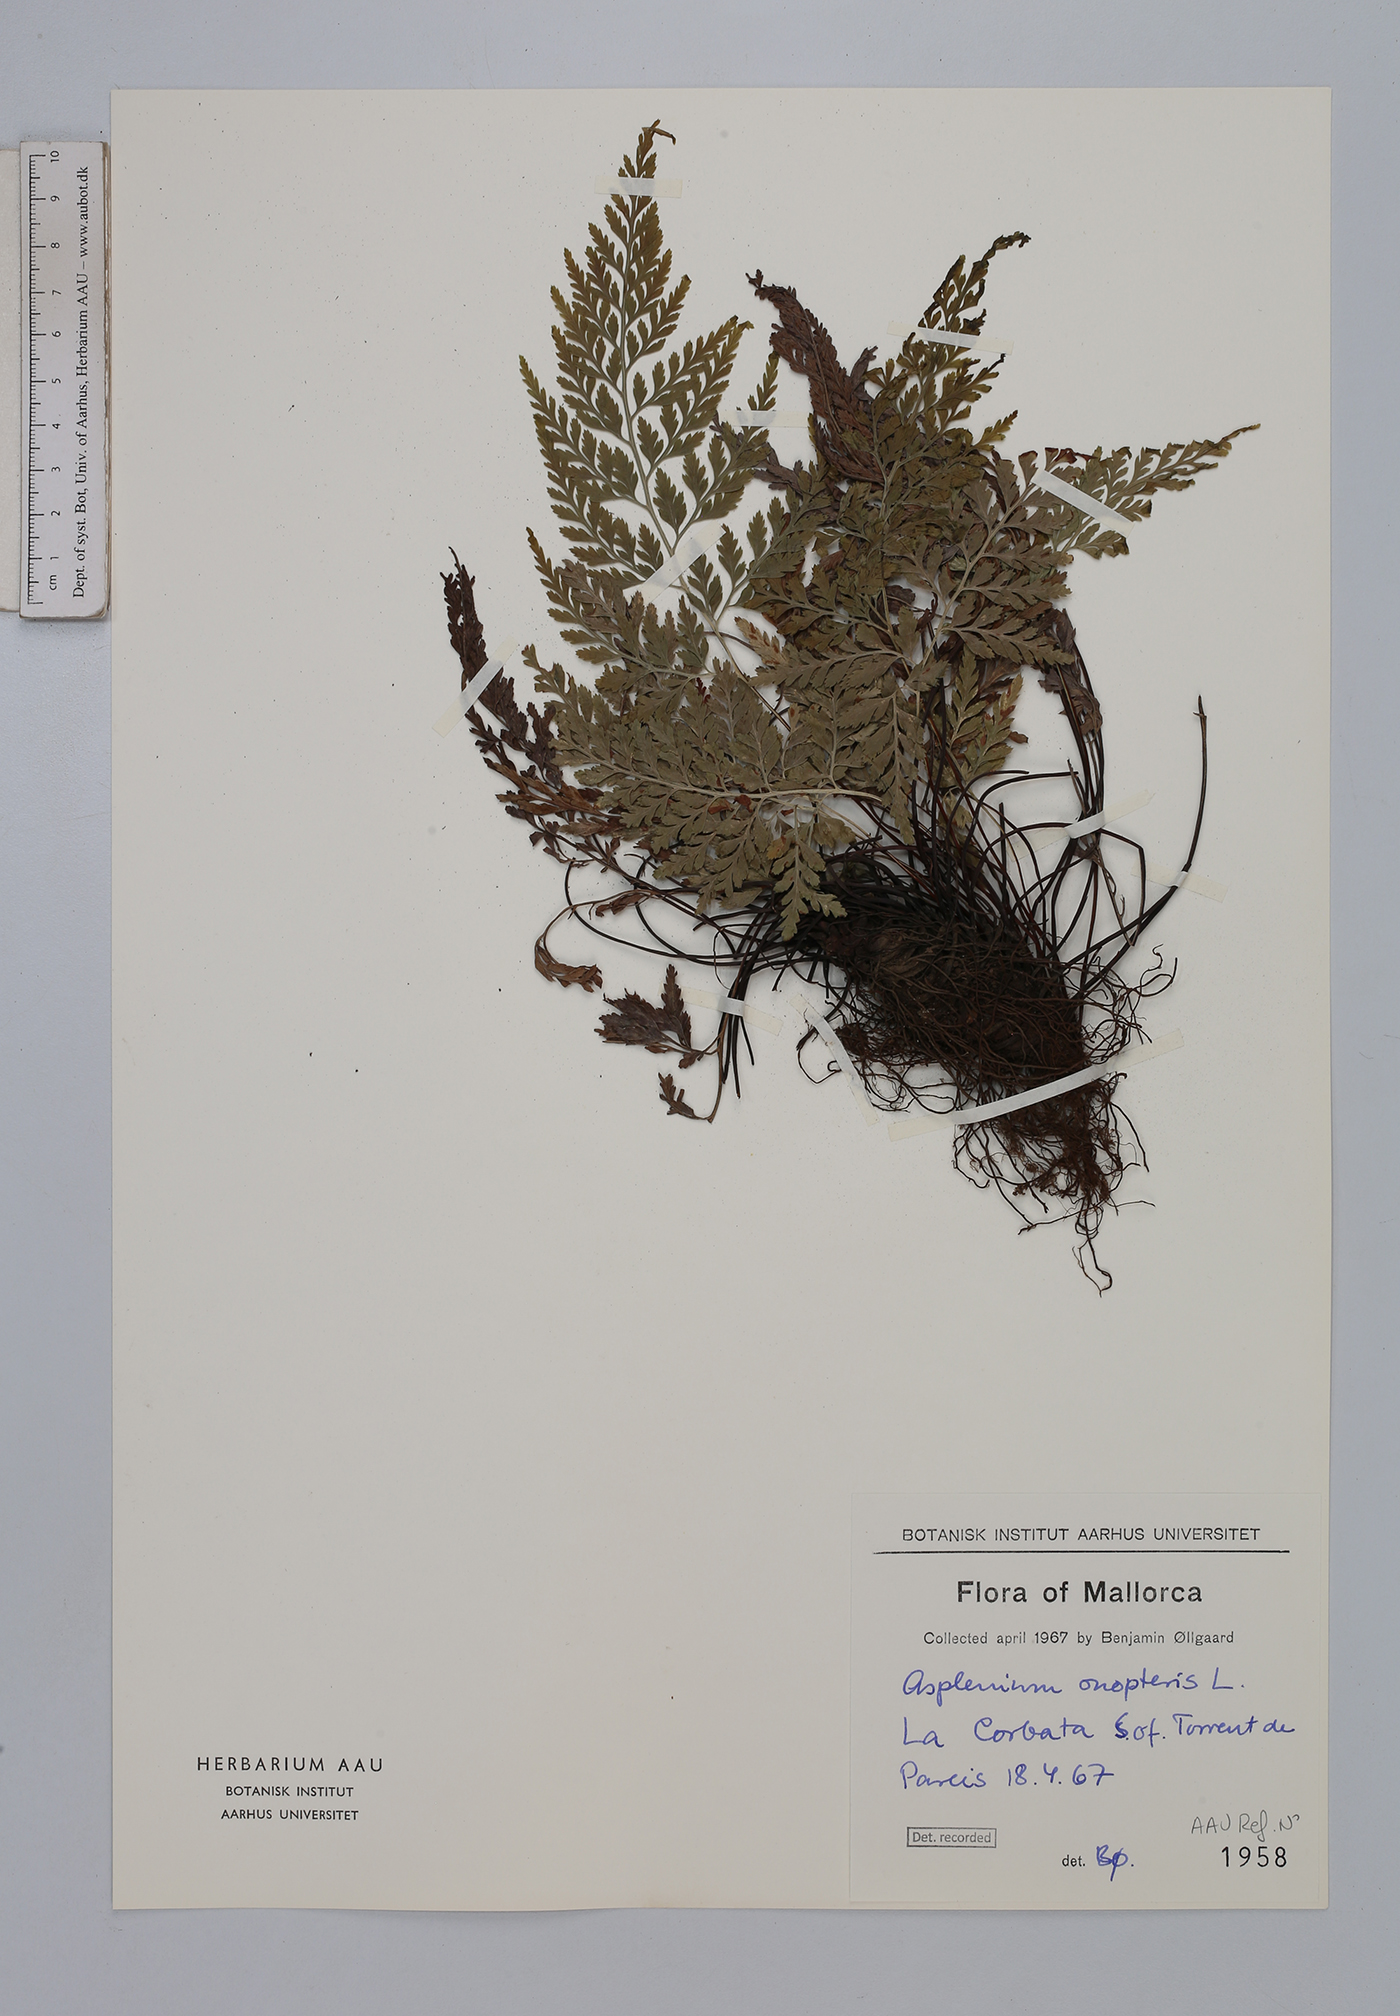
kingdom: Plantae
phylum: Tracheophyta
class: Polypodiopsida
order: Polypodiales
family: Aspleniaceae
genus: Asplenium
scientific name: Asplenium onopteris
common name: Irish spleenwort
